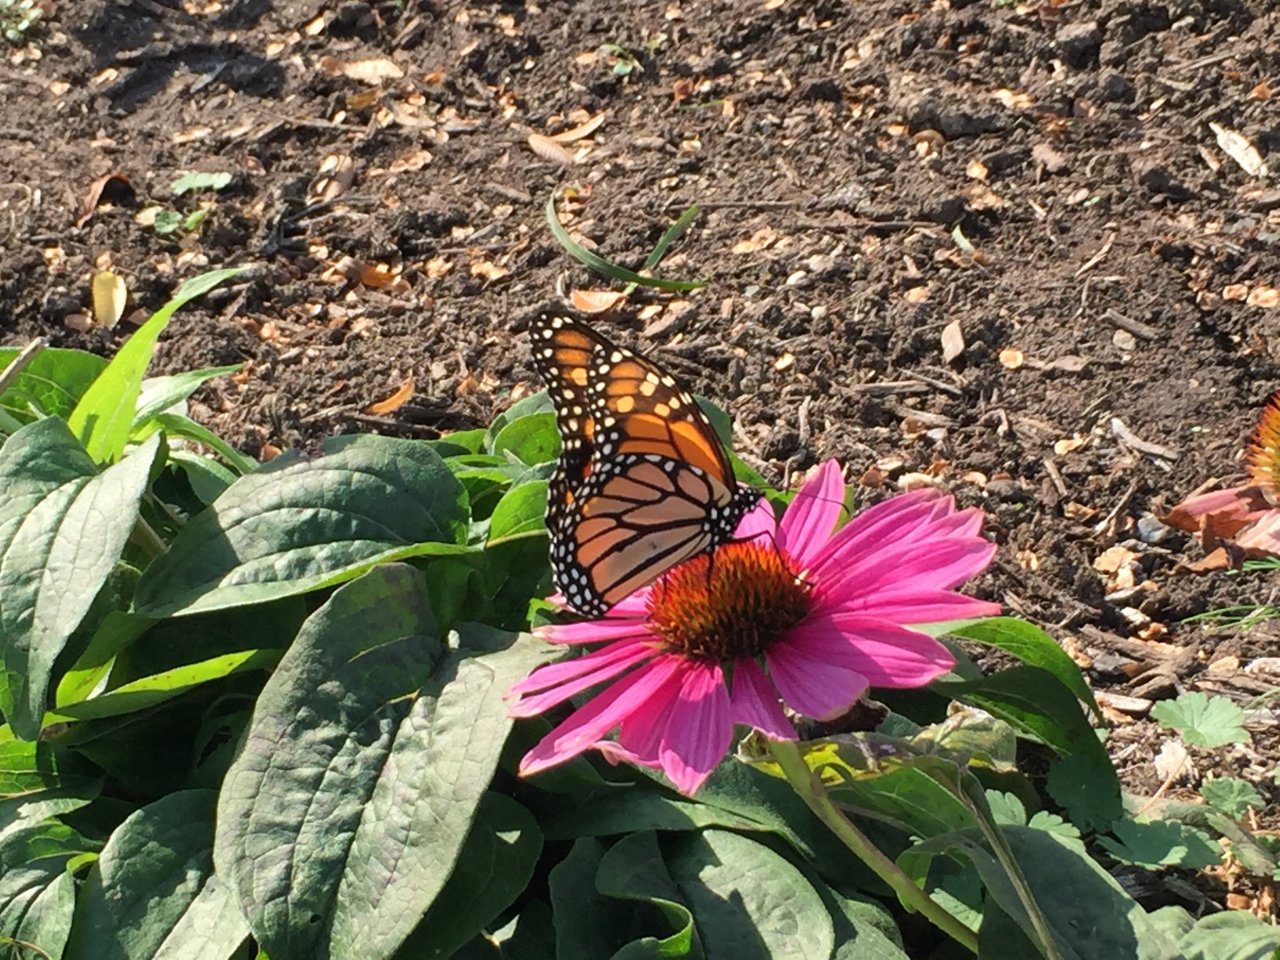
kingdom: Animalia
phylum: Arthropoda
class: Insecta
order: Lepidoptera
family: Nymphalidae
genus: Danaus
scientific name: Danaus plexippus
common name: Monarch
